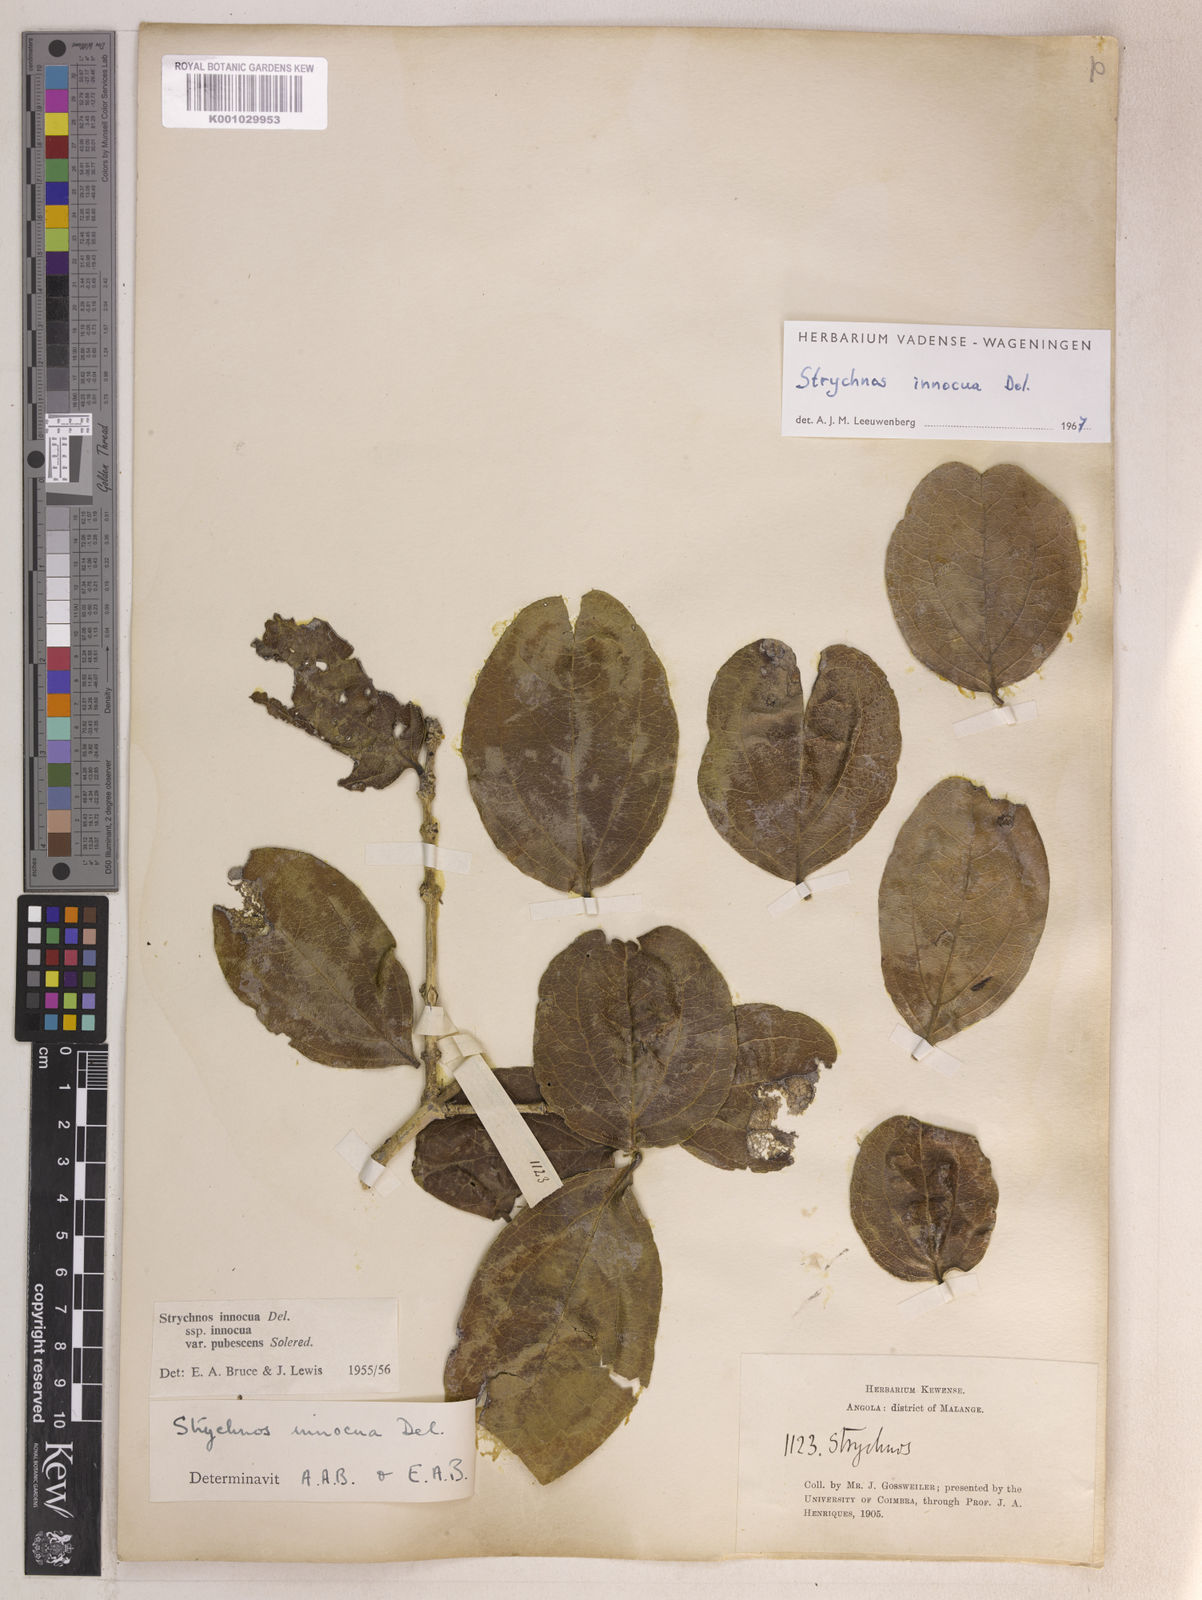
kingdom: Plantae
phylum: Tracheophyta
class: Magnoliopsida
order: Gentianales
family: Loganiaceae
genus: Strychnos
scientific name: Strychnos innocua
